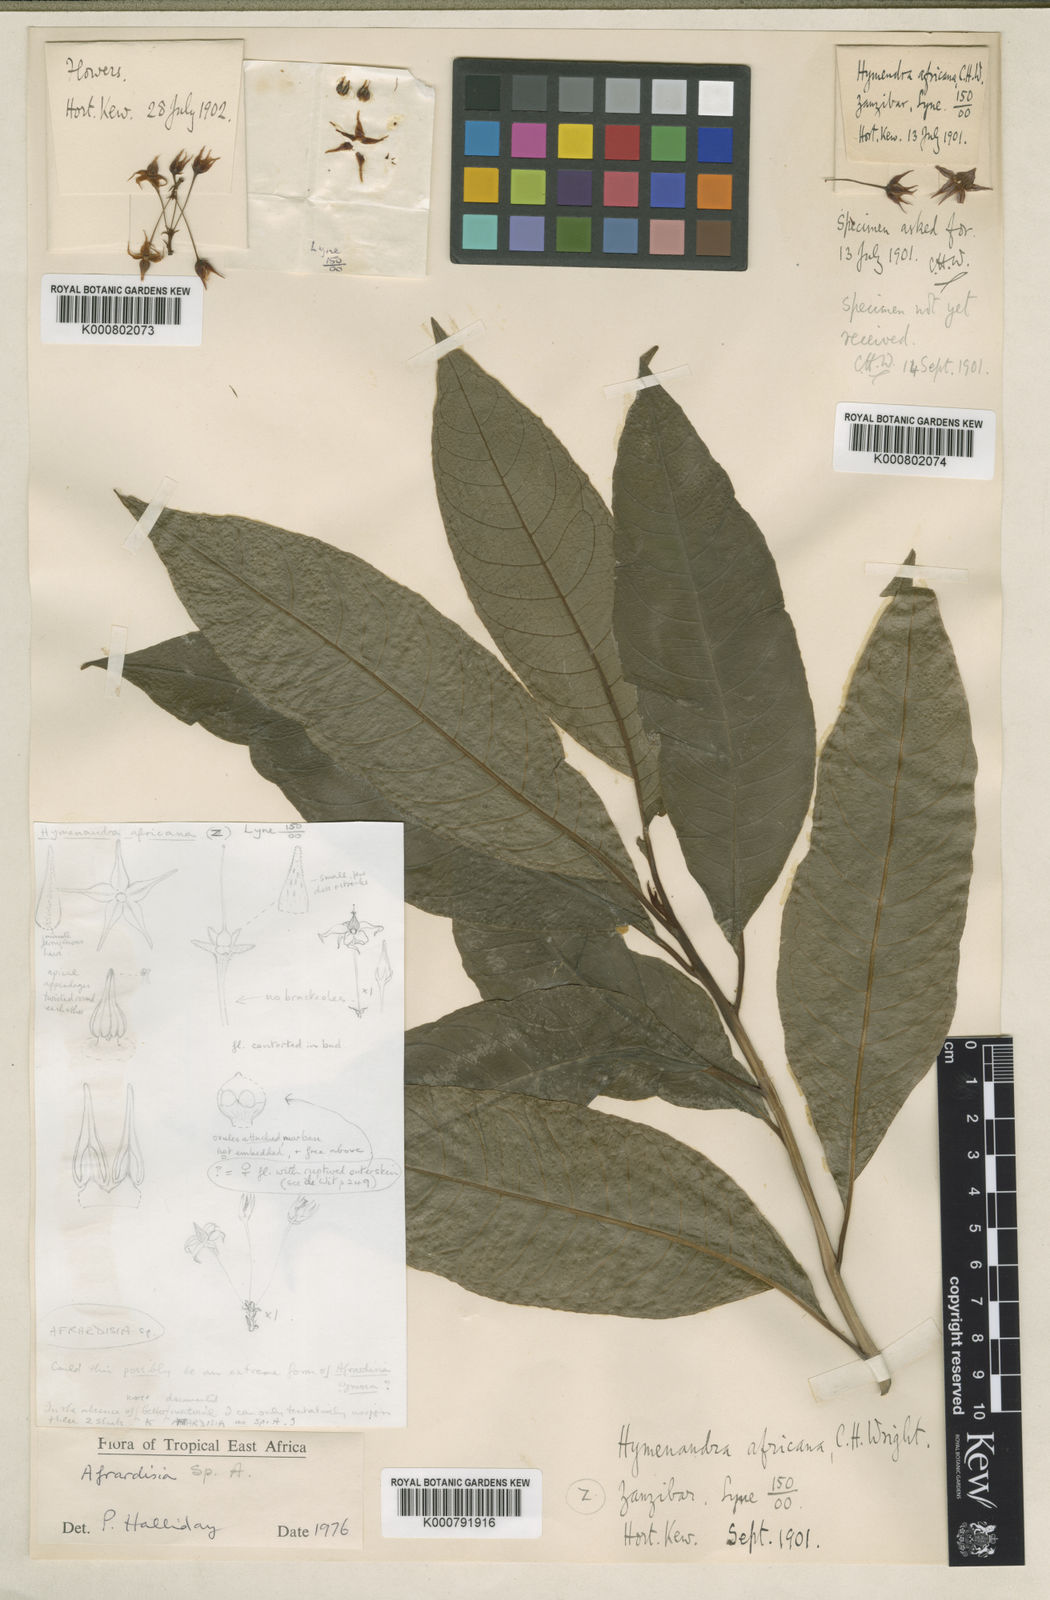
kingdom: Plantae
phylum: Tracheophyta
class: Magnoliopsida
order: Ericales
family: Primulaceae
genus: Ardisia
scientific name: Ardisia
